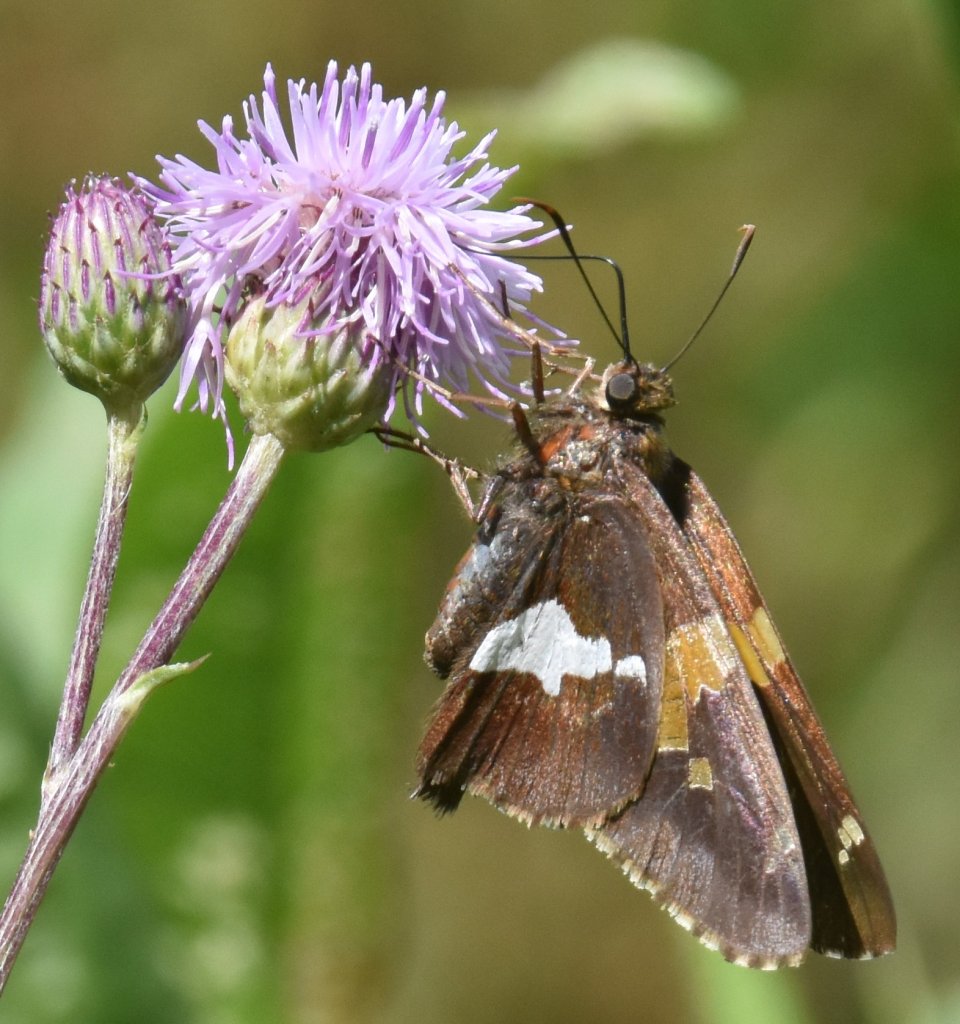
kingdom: Animalia
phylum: Arthropoda
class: Insecta
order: Lepidoptera
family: Hesperiidae
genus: Epargyreus
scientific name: Epargyreus clarus
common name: Silver-spotted Skipper
